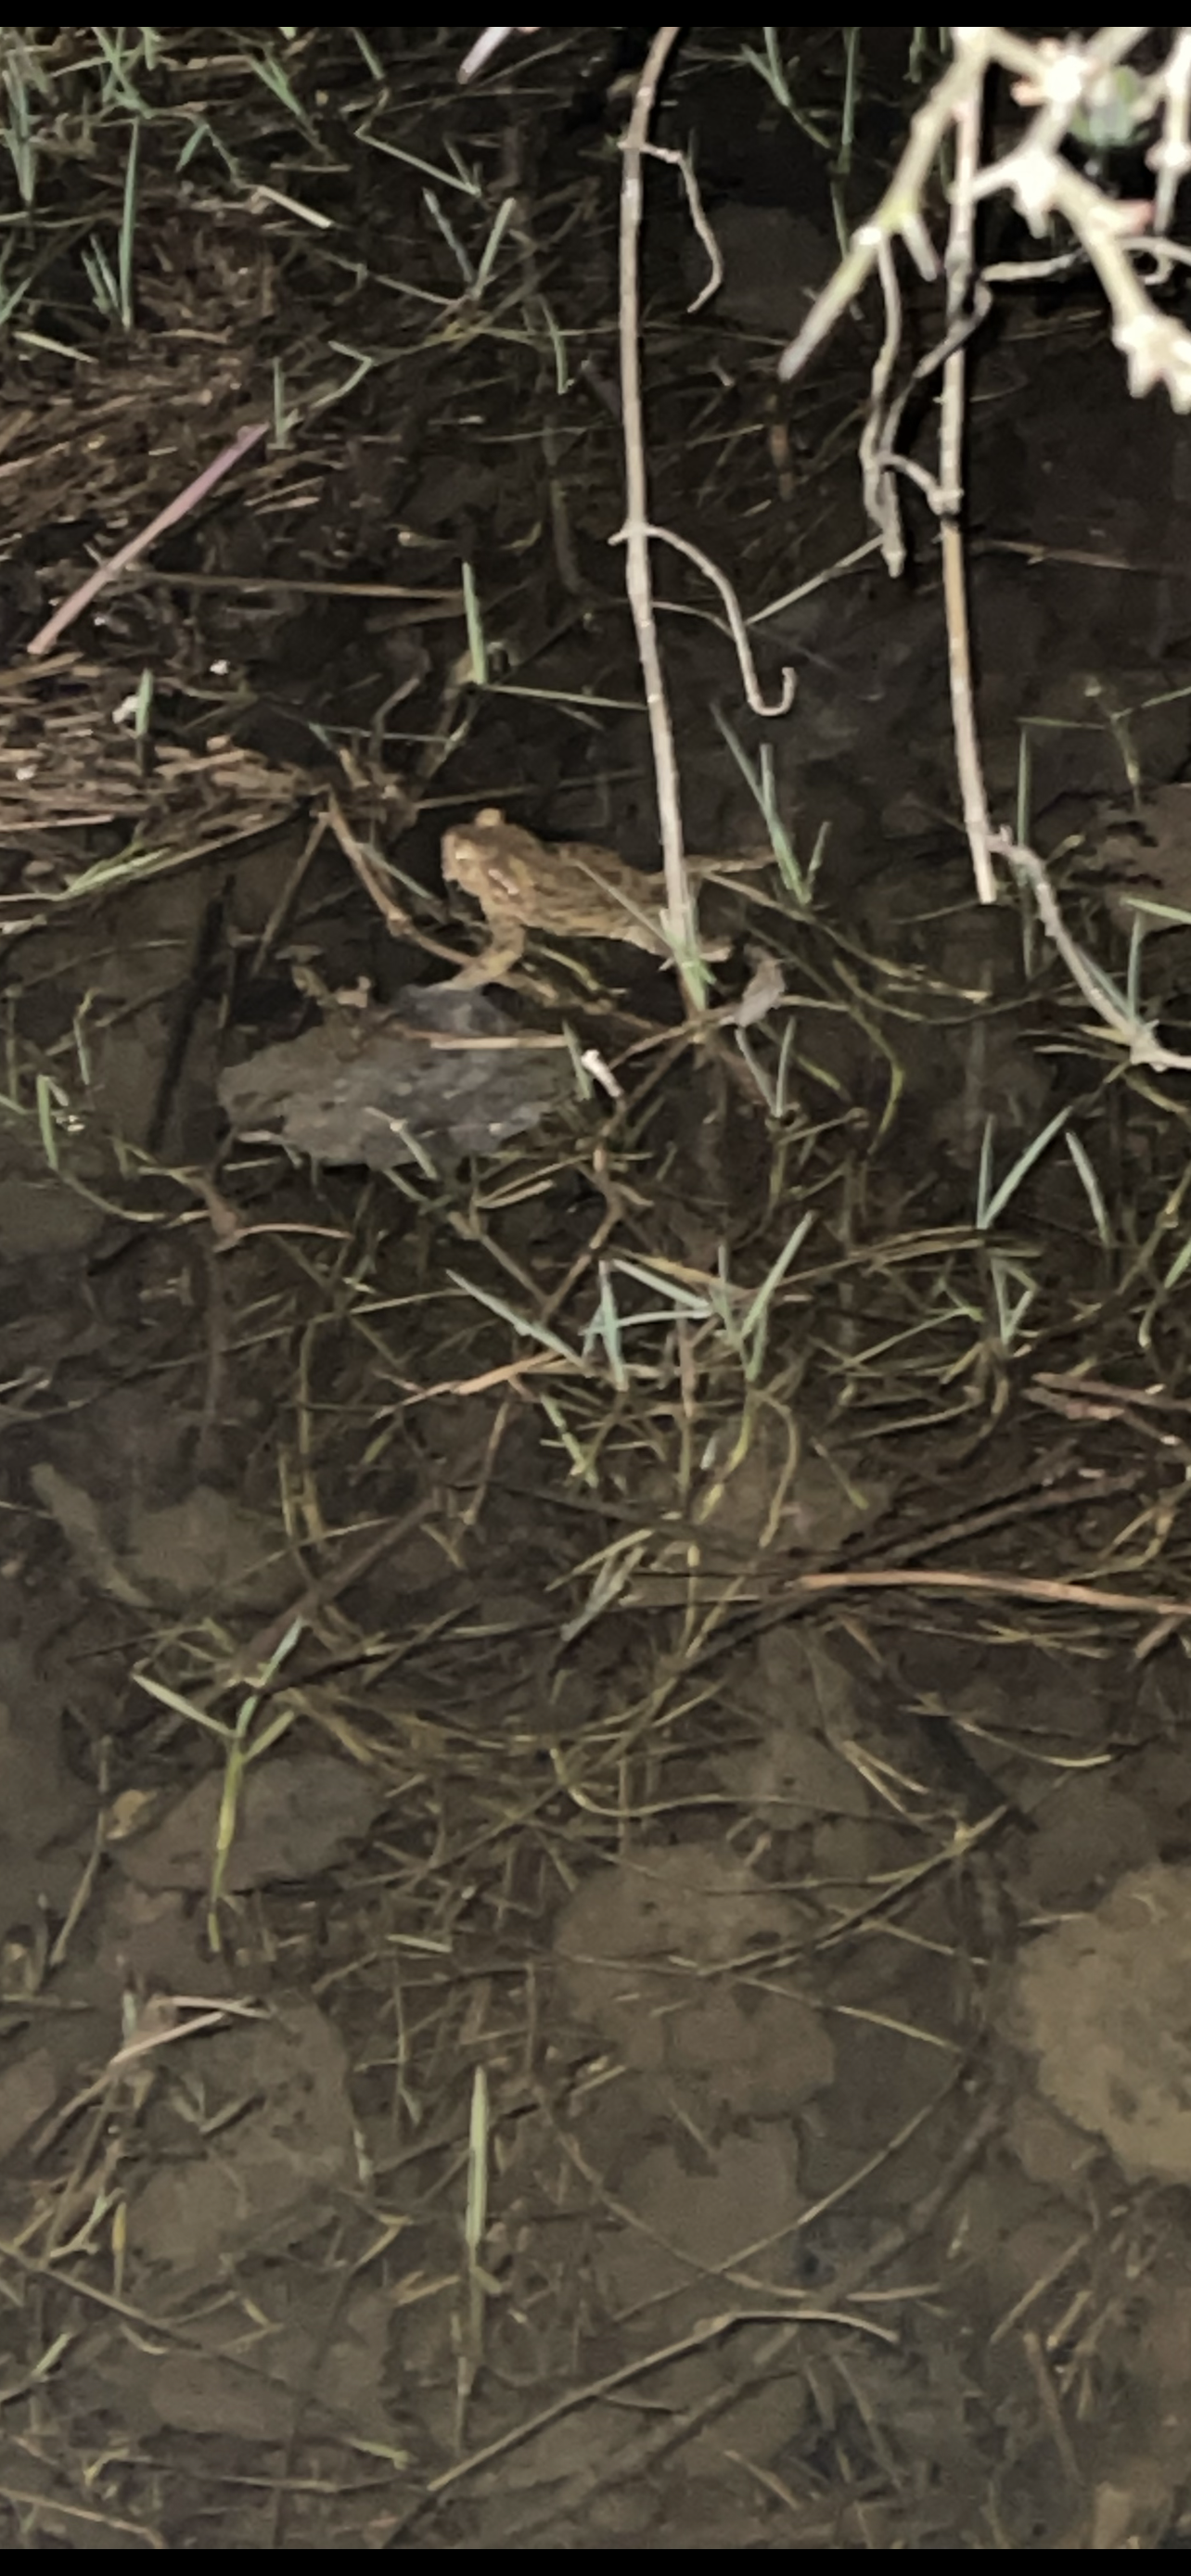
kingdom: Animalia
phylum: Chordata
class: Amphibia
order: Anura
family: Bufonidae
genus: Bufo
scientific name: Bufo bufo
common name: Skrubtudse
